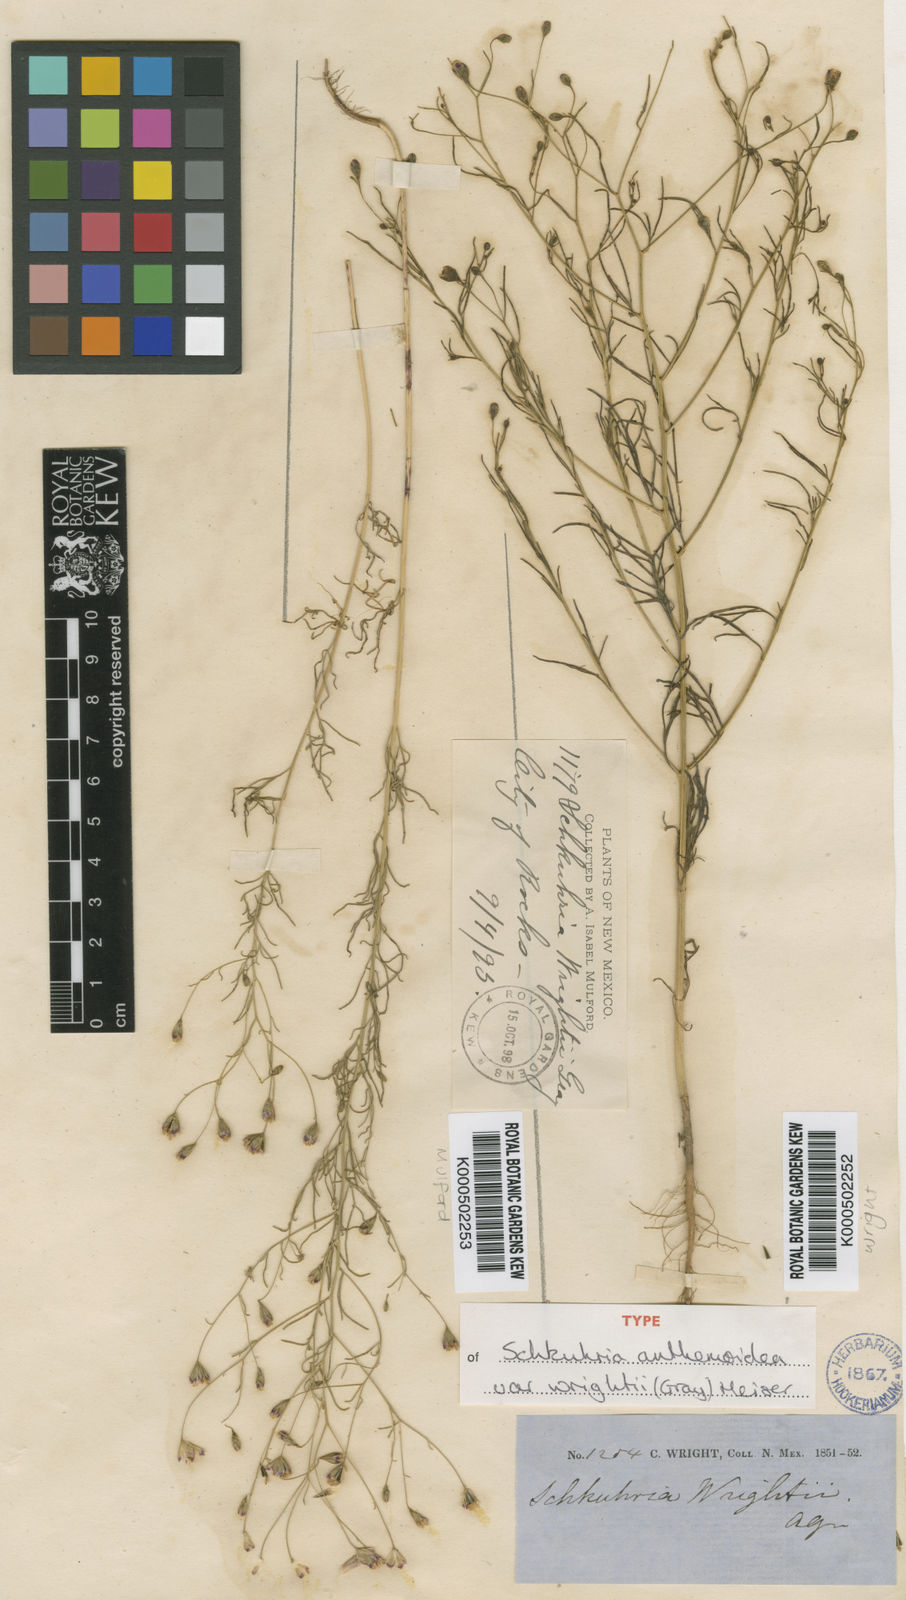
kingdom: Plantae
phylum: Tracheophyta
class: Magnoliopsida
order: Asterales
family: Asteraceae
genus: Achyropappus
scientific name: Achyropappus anthemoides
